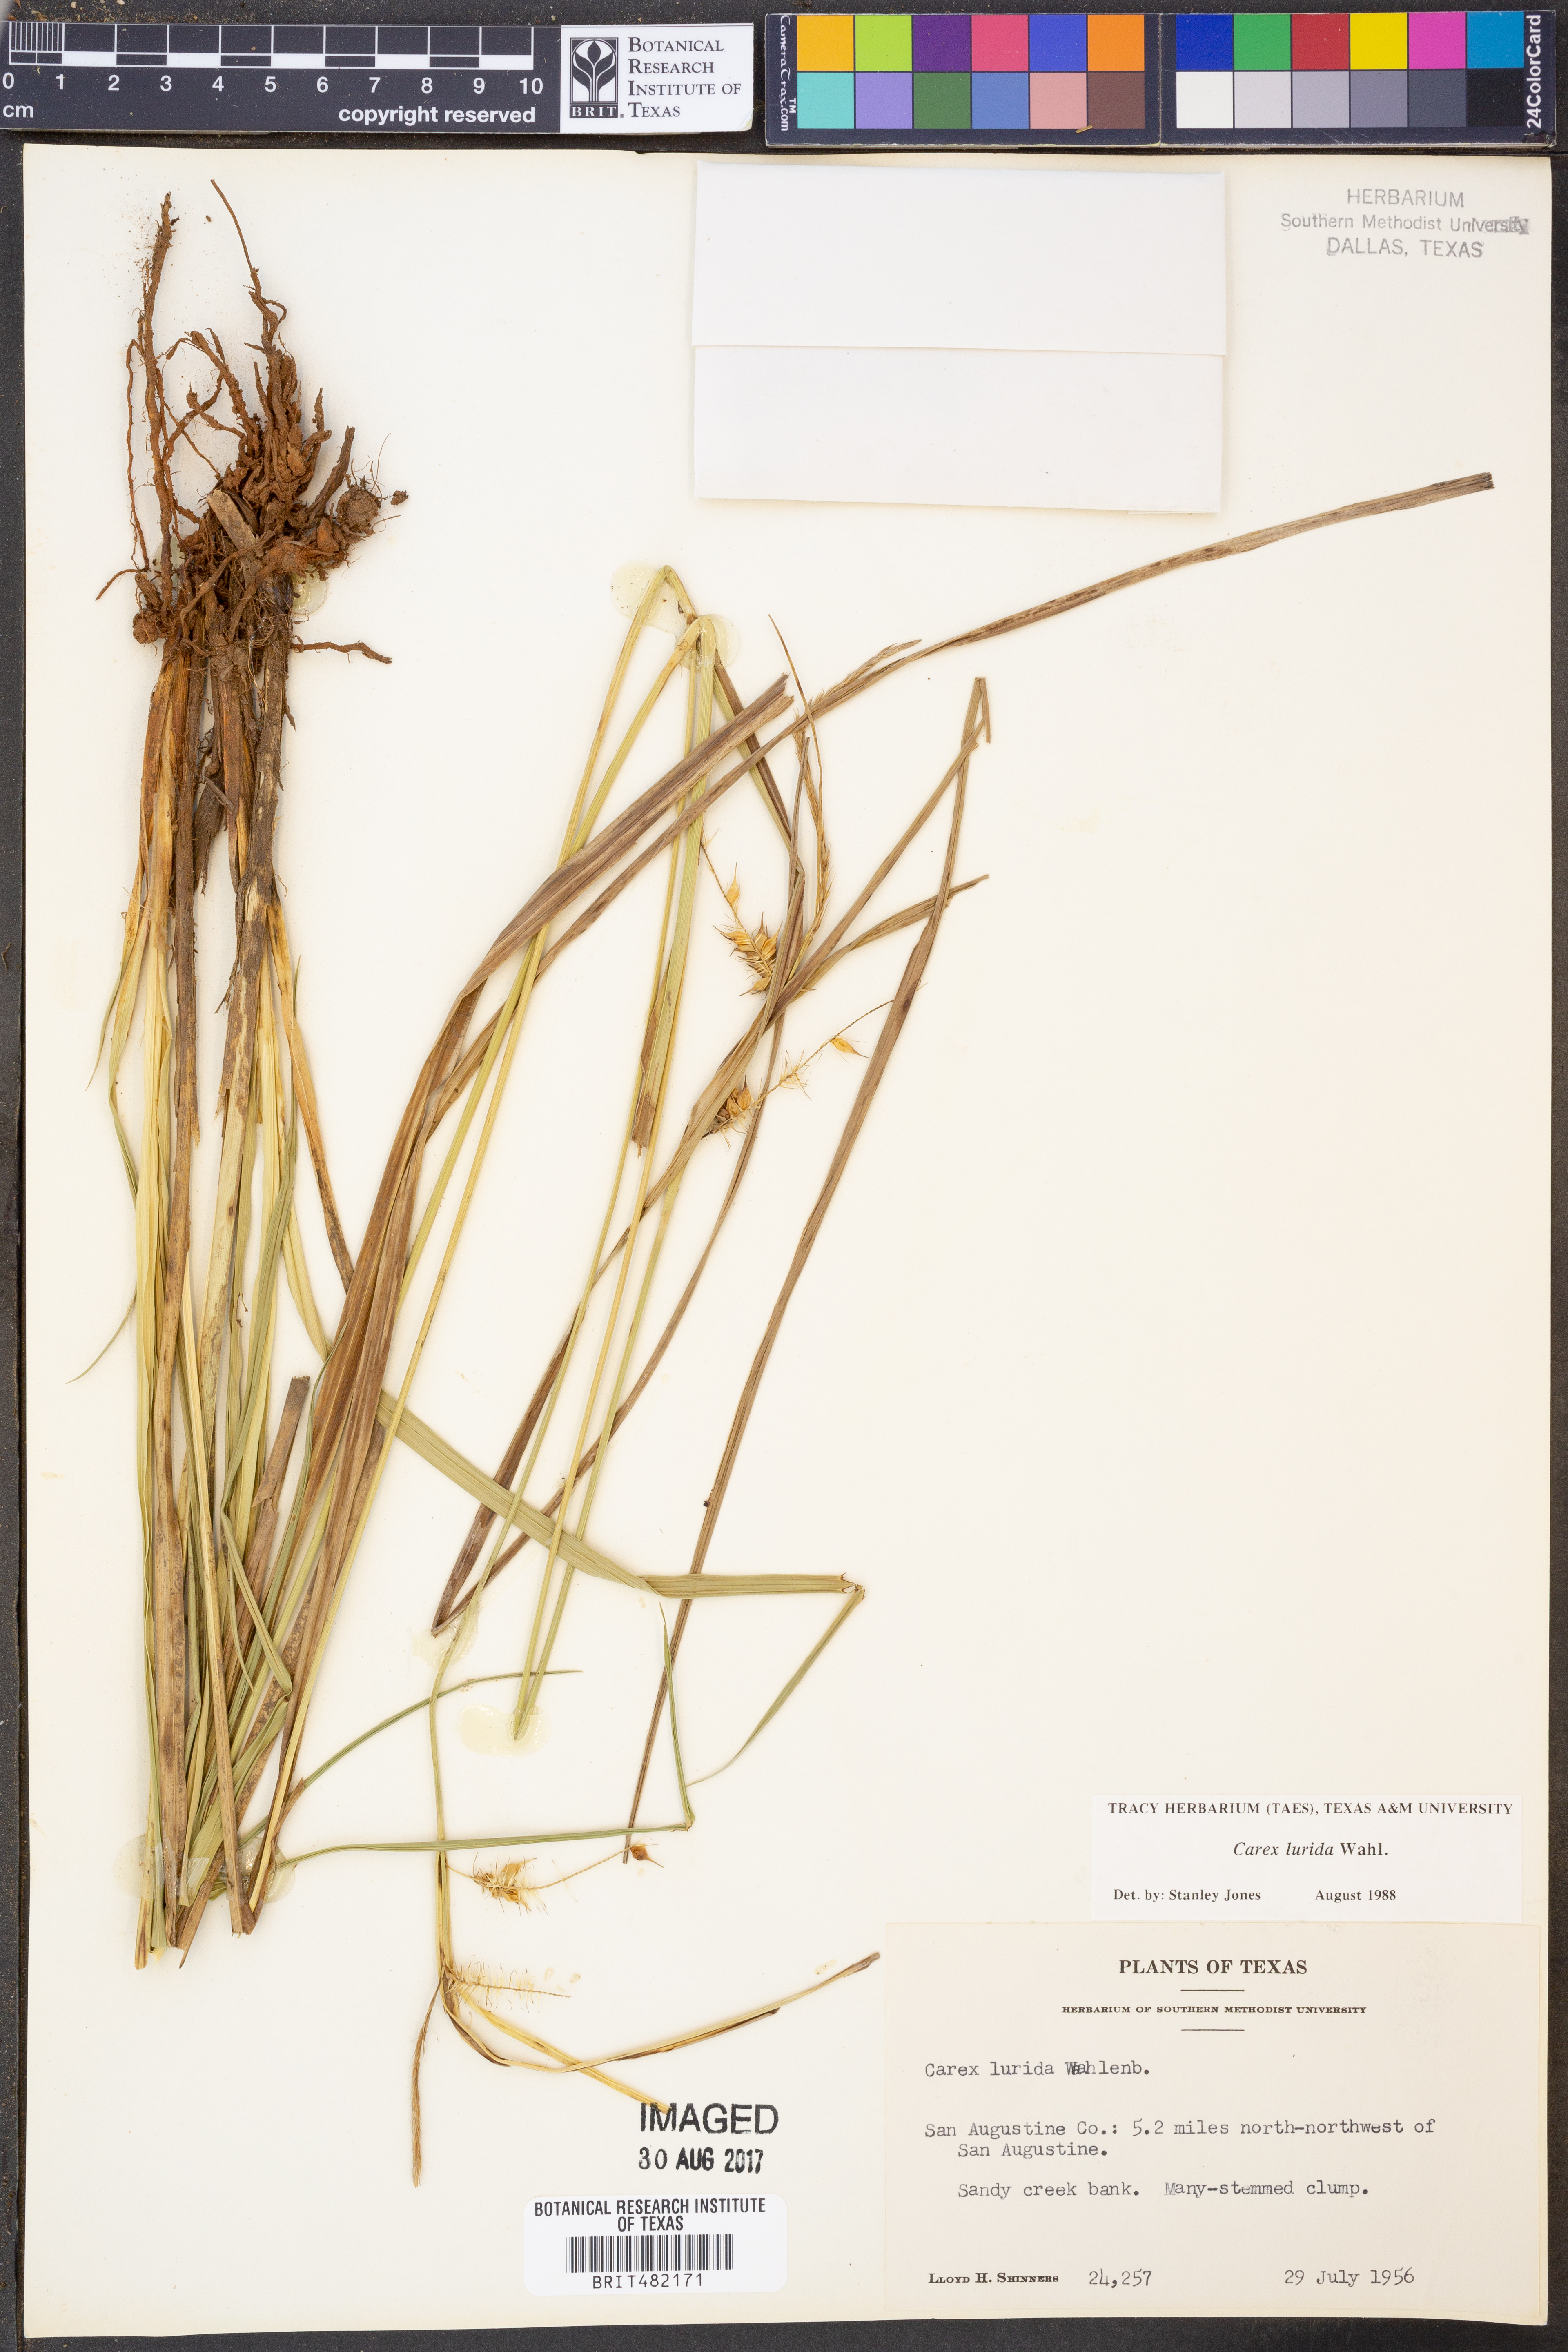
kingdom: Plantae
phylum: Tracheophyta
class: Liliopsida
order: Poales
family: Cyperaceae
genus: Carex
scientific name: Carex lurida
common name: Sallow sedge
